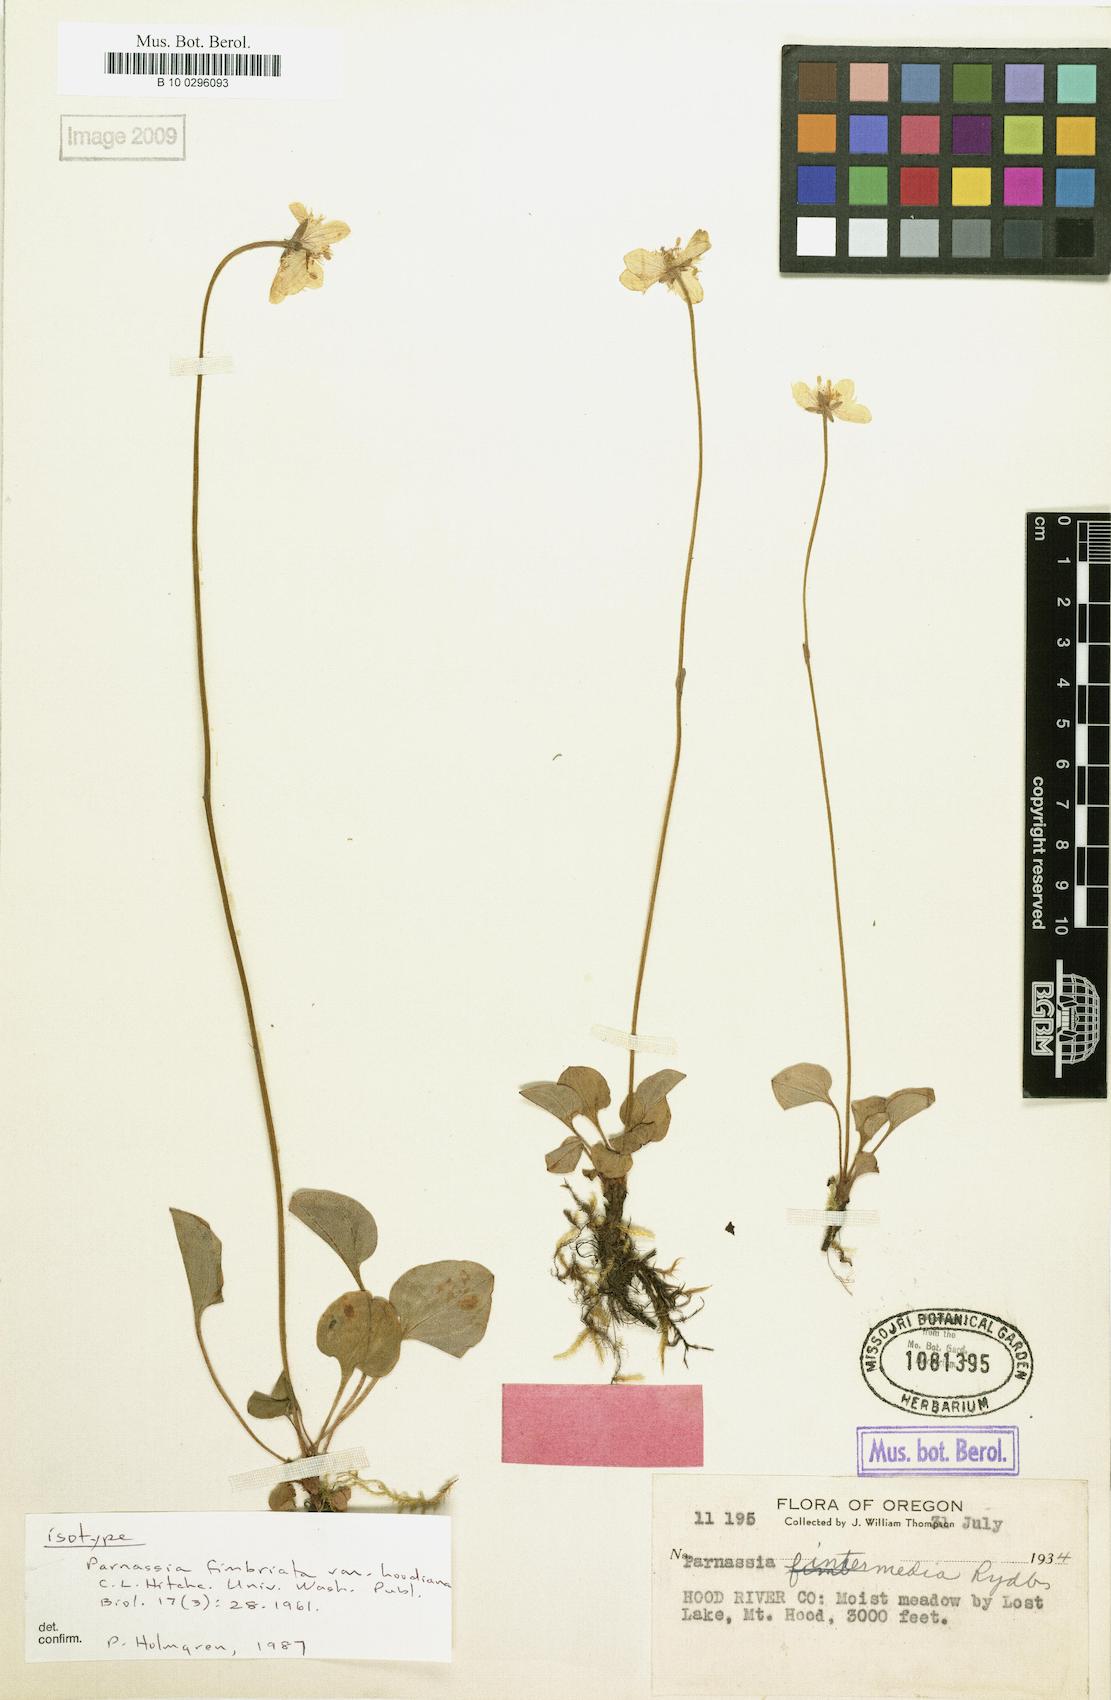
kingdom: Plantae
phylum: Tracheophyta
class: Magnoliopsida
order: Celastrales
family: Parnassiaceae
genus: Parnassia
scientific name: Parnassia cirrata
